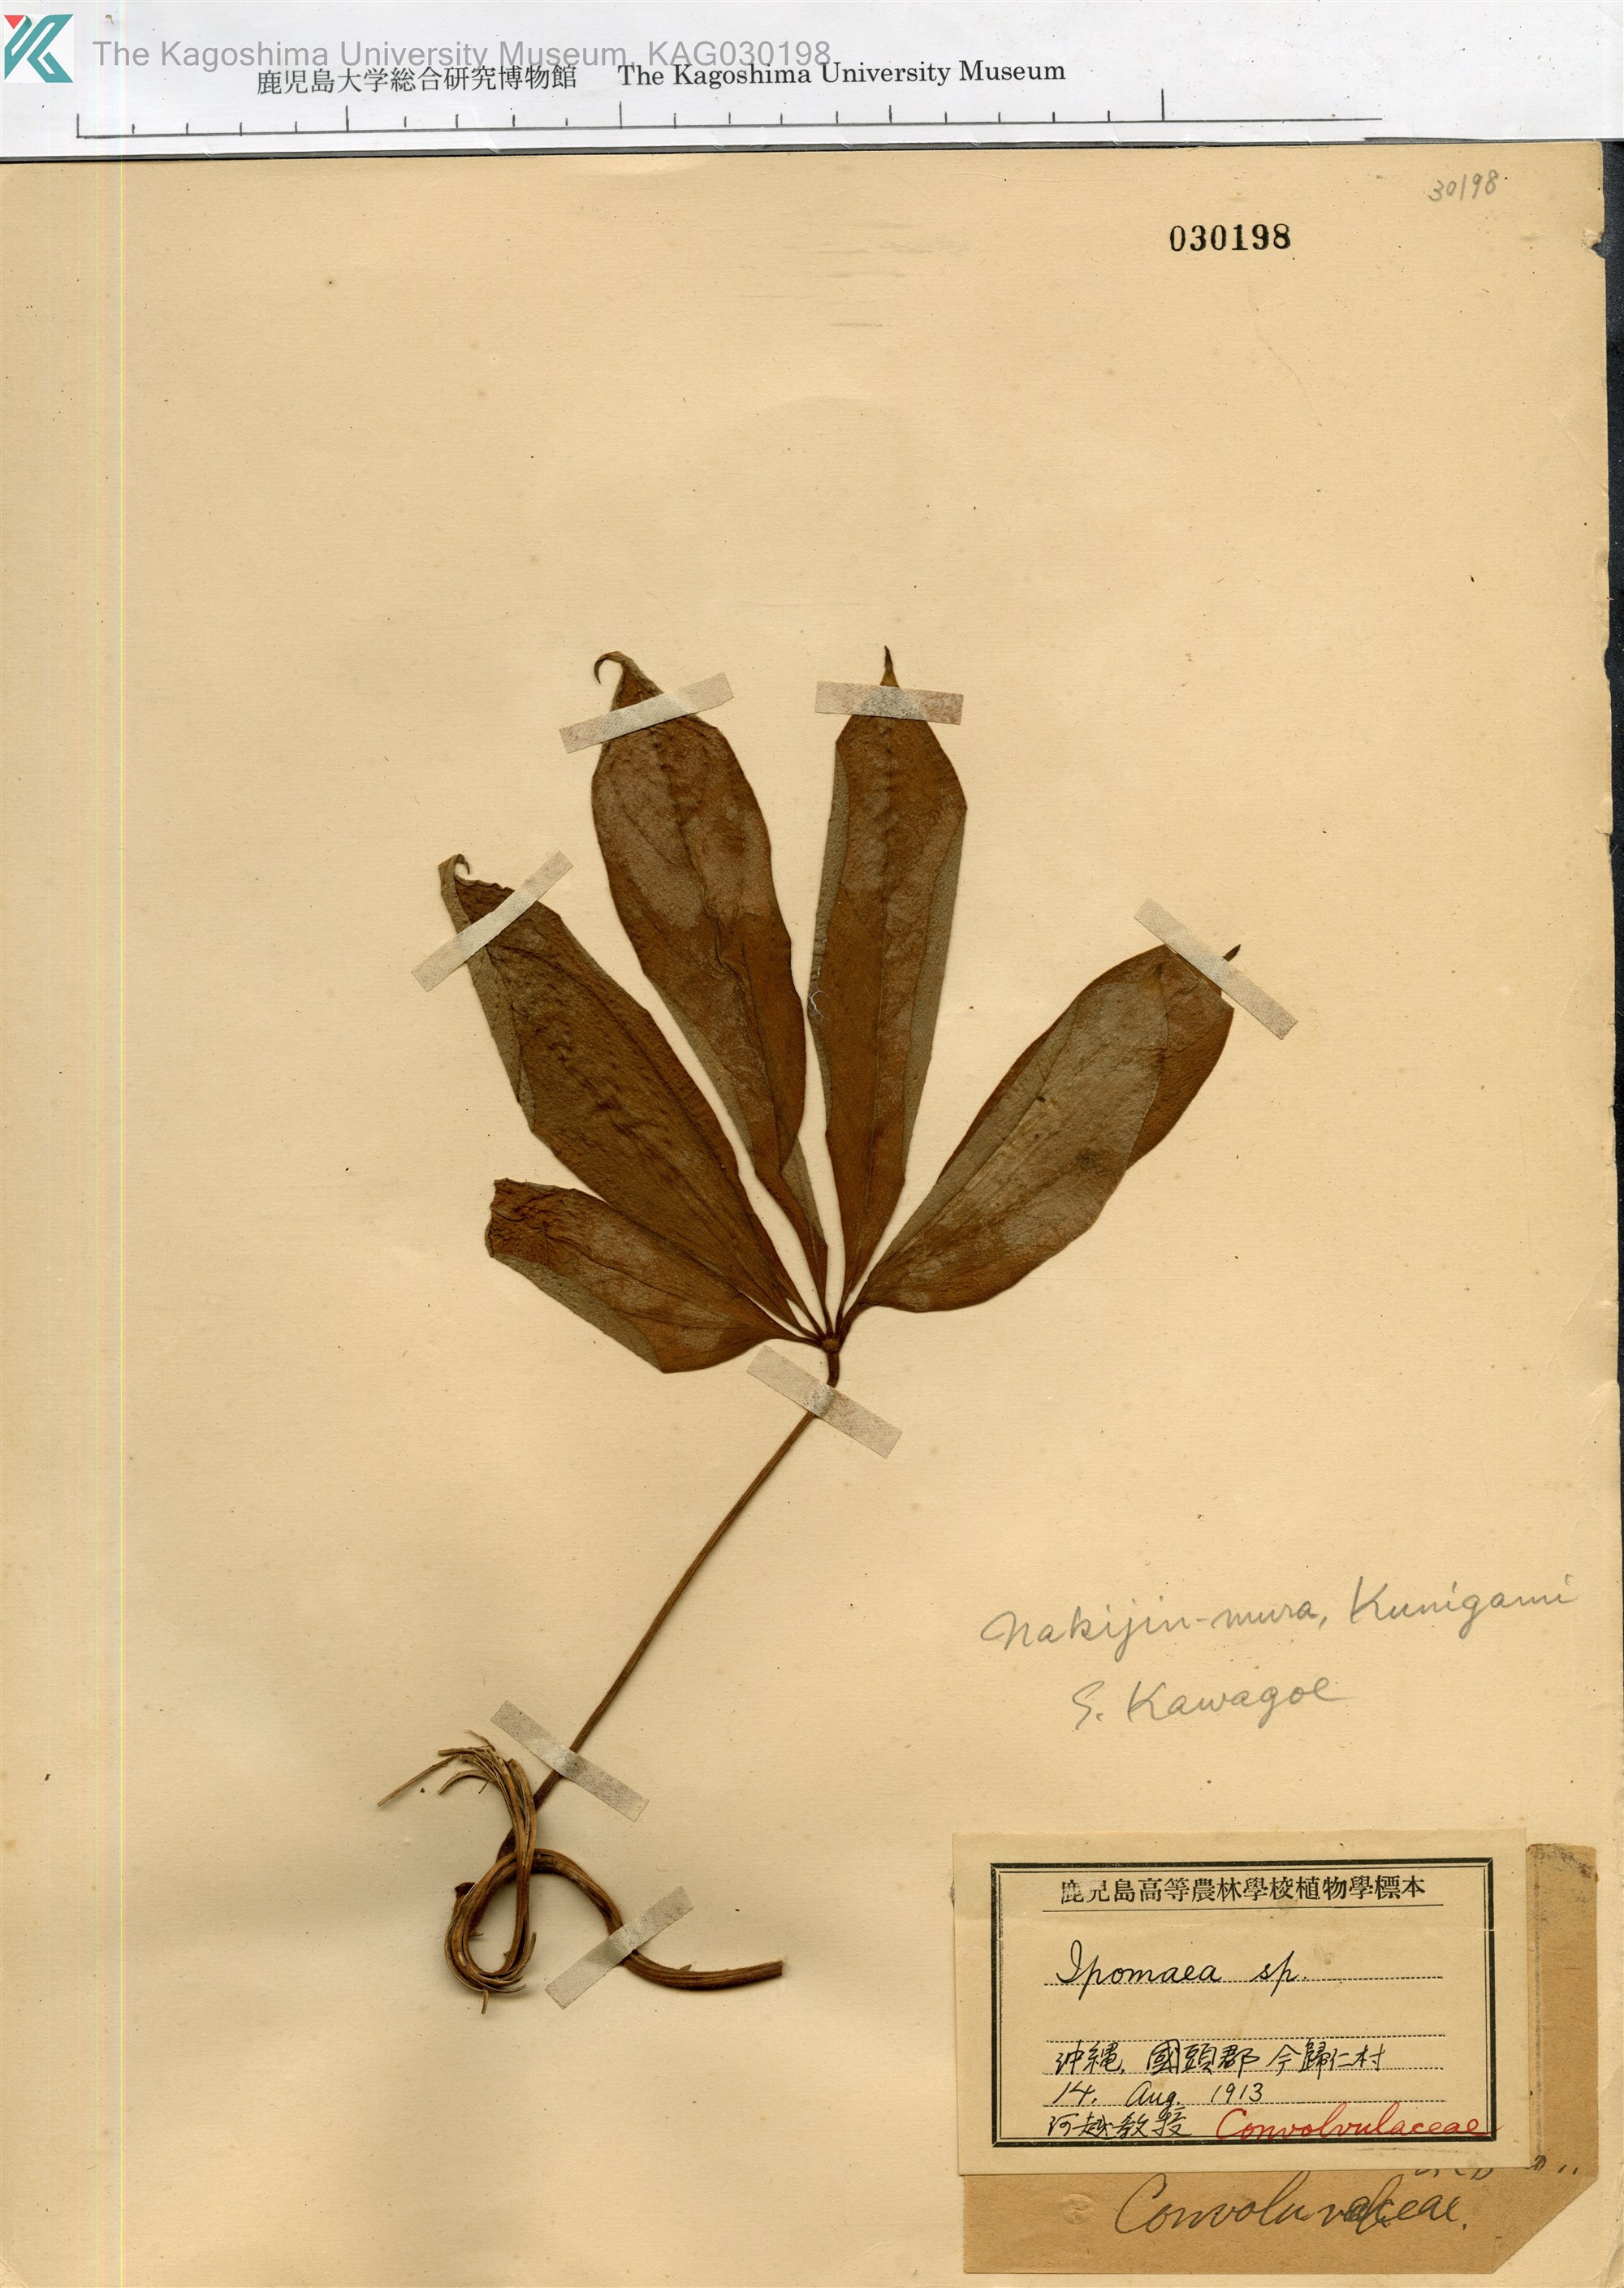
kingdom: Plantae
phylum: Tracheophyta
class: Liliopsida
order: Dioscoreales
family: Dioscoreaceae
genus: Dioscorea
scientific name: Dioscorea pentaphylla
